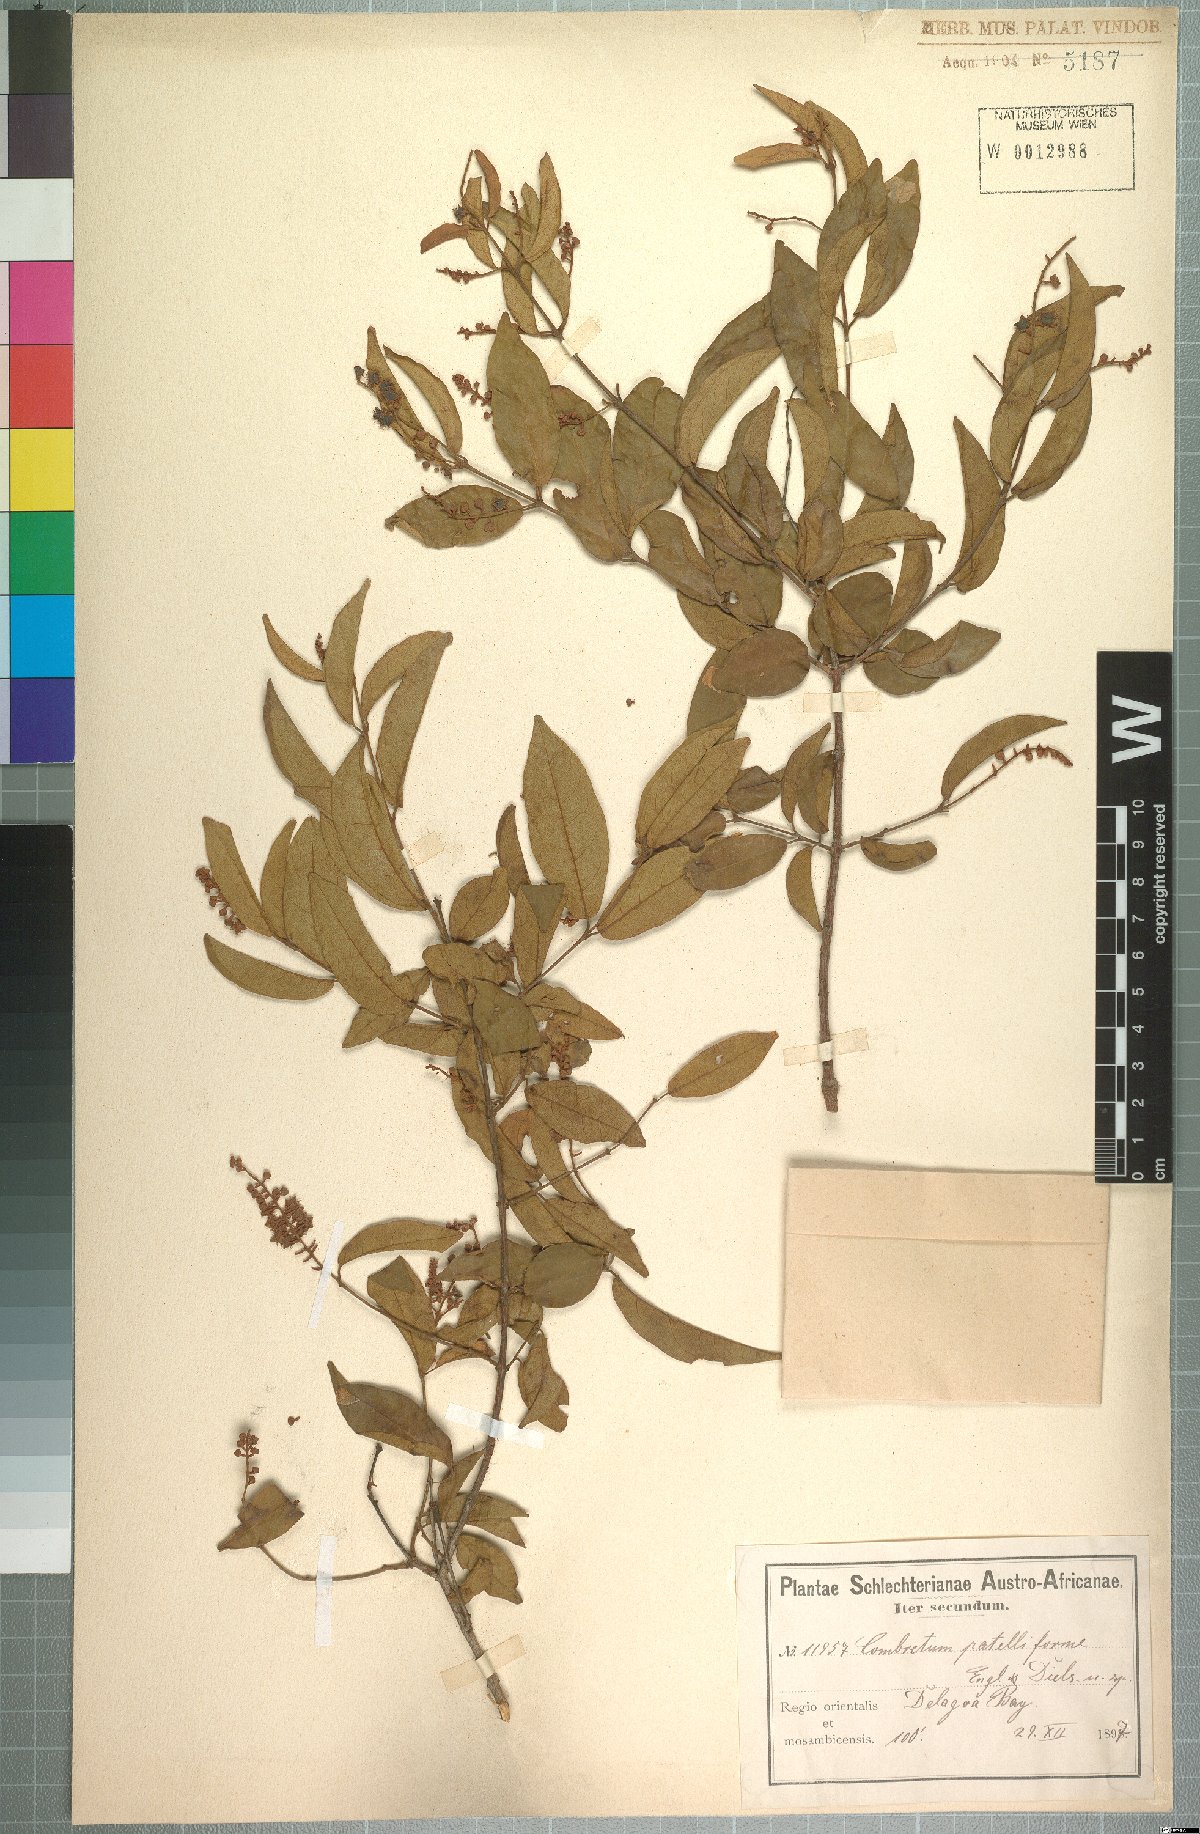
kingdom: Plantae
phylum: Tracheophyta
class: Magnoliopsida
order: Myrtales
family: Combretaceae
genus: Combretum
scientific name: Combretum celastroides
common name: Jesse-bush combretum
